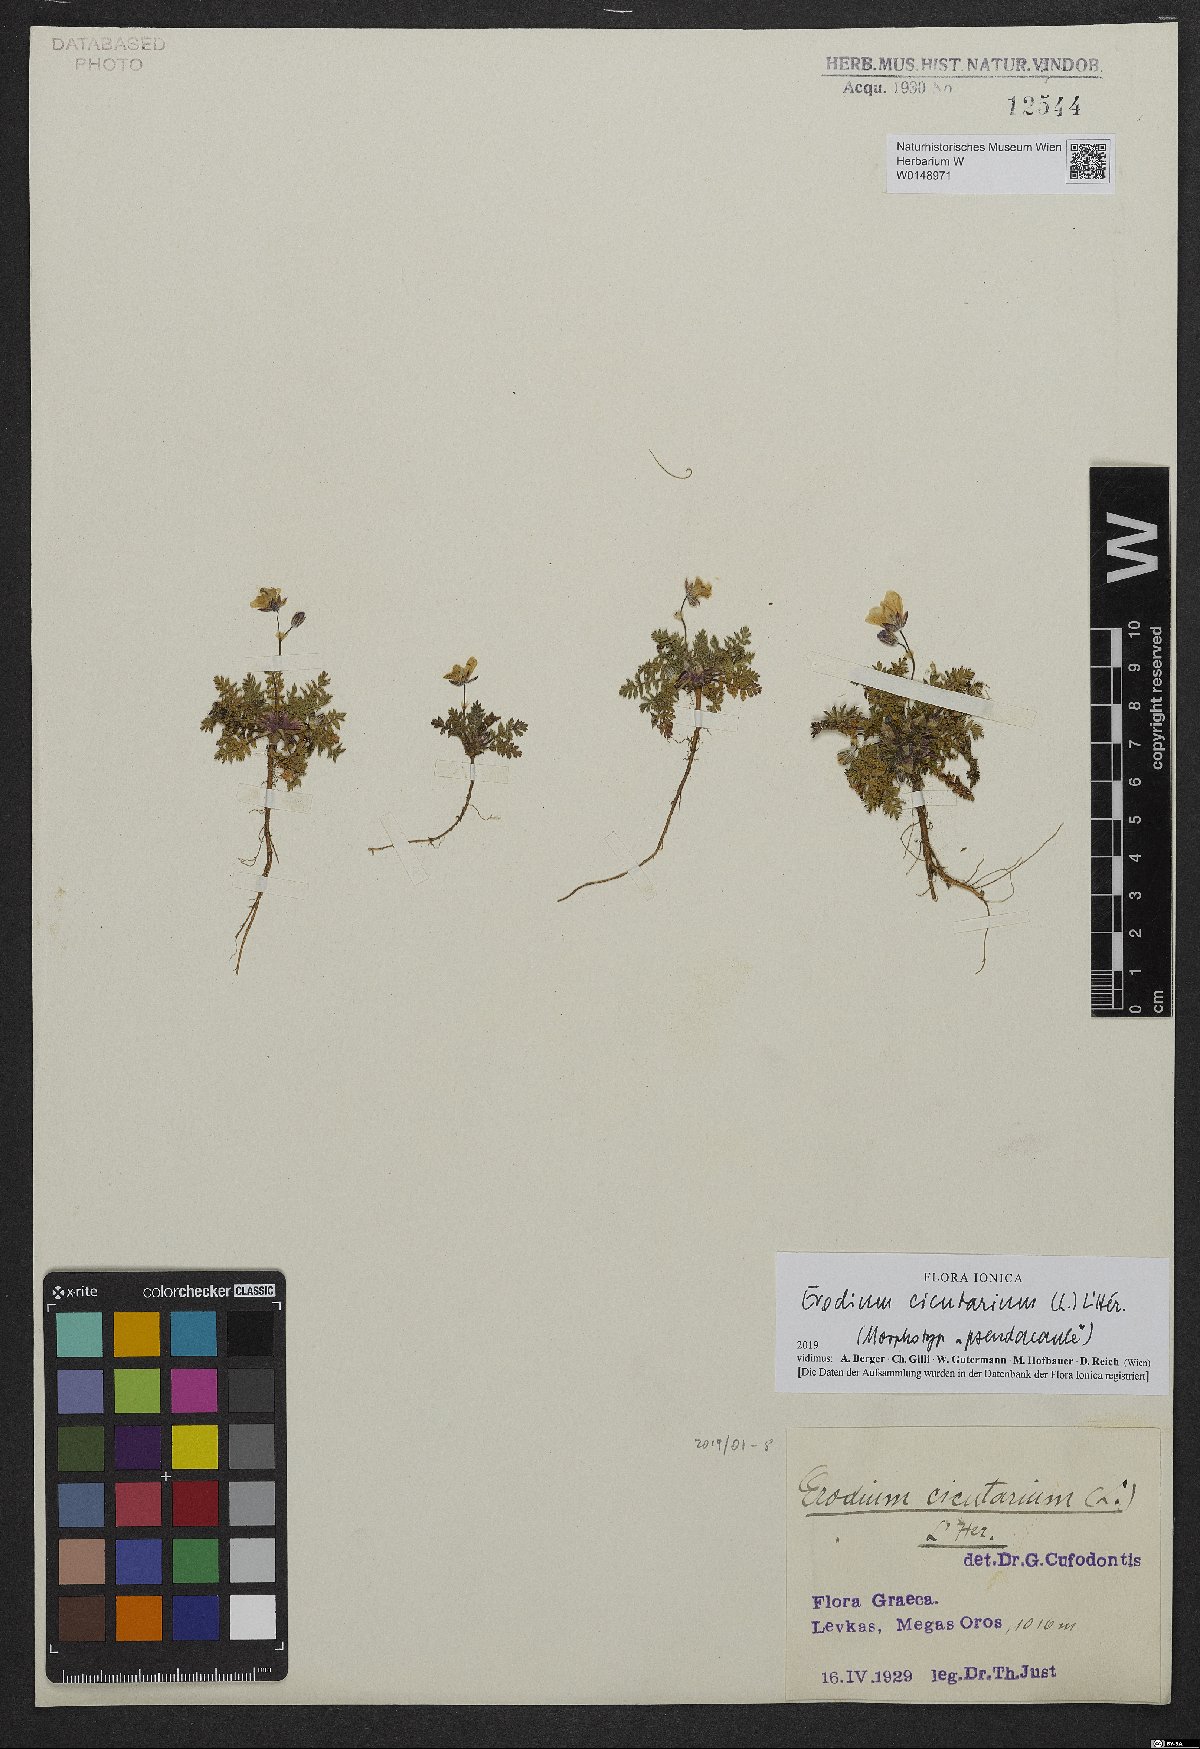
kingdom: Plantae
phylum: Tracheophyta
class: Magnoliopsida
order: Geraniales
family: Geraniaceae
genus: Erodium
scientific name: Erodium cicutarium
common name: Common stork's-bill
